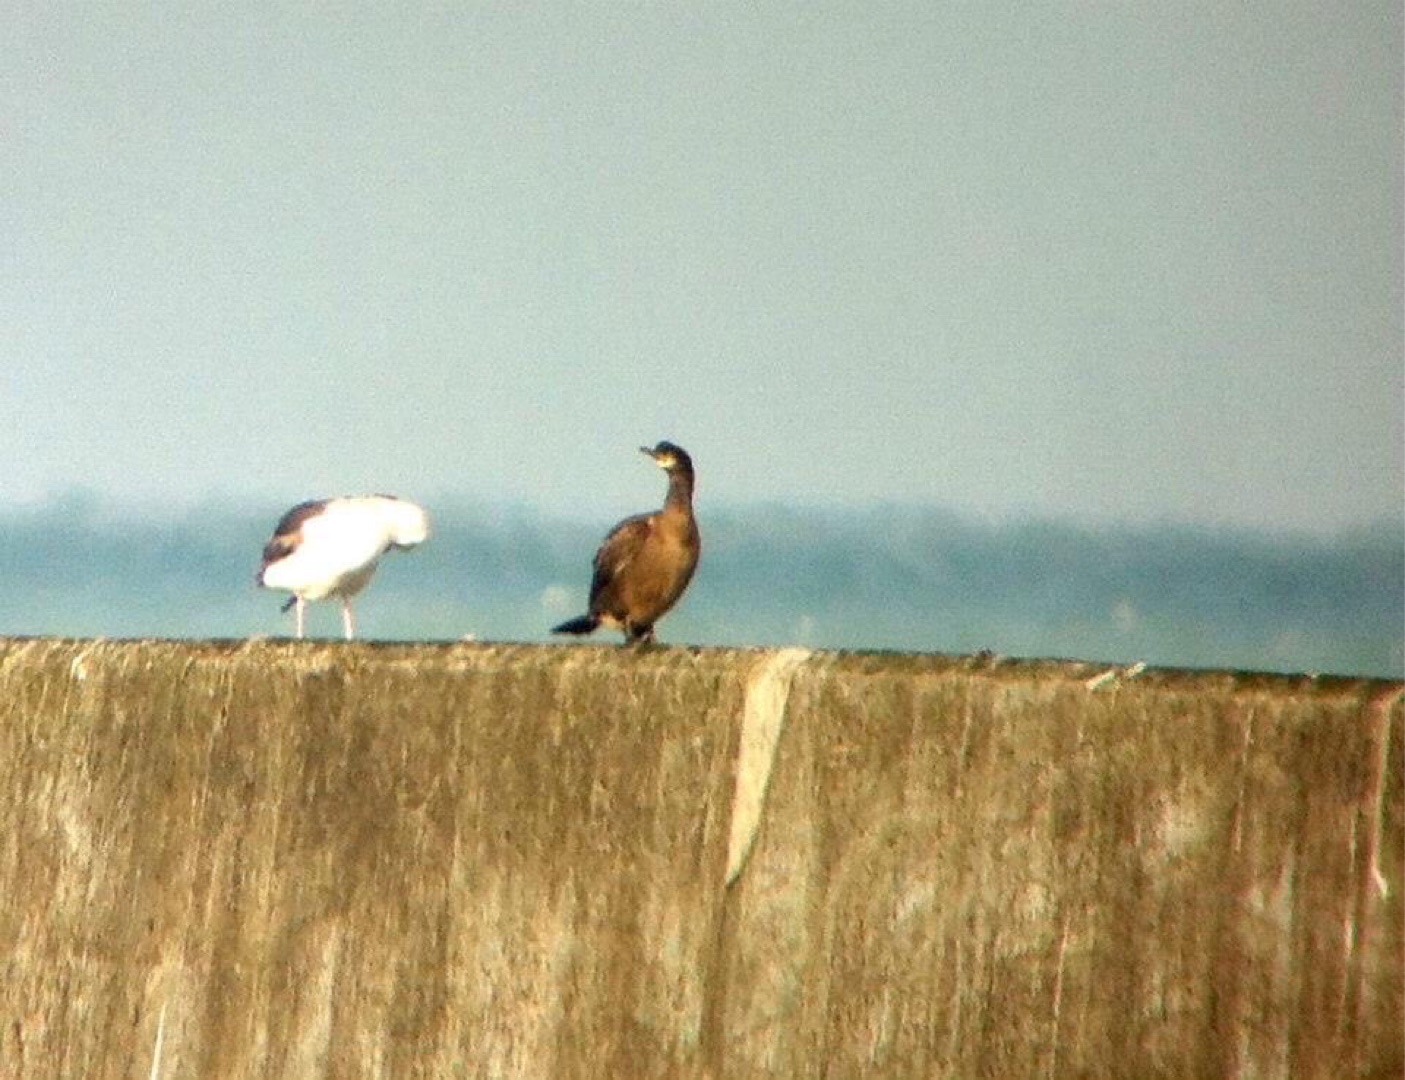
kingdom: Animalia
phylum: Chordata
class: Aves
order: Suliformes
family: Phalacrocoracidae
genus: Phalacrocorax
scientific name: Phalacrocorax aristotelis
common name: Topskarv
